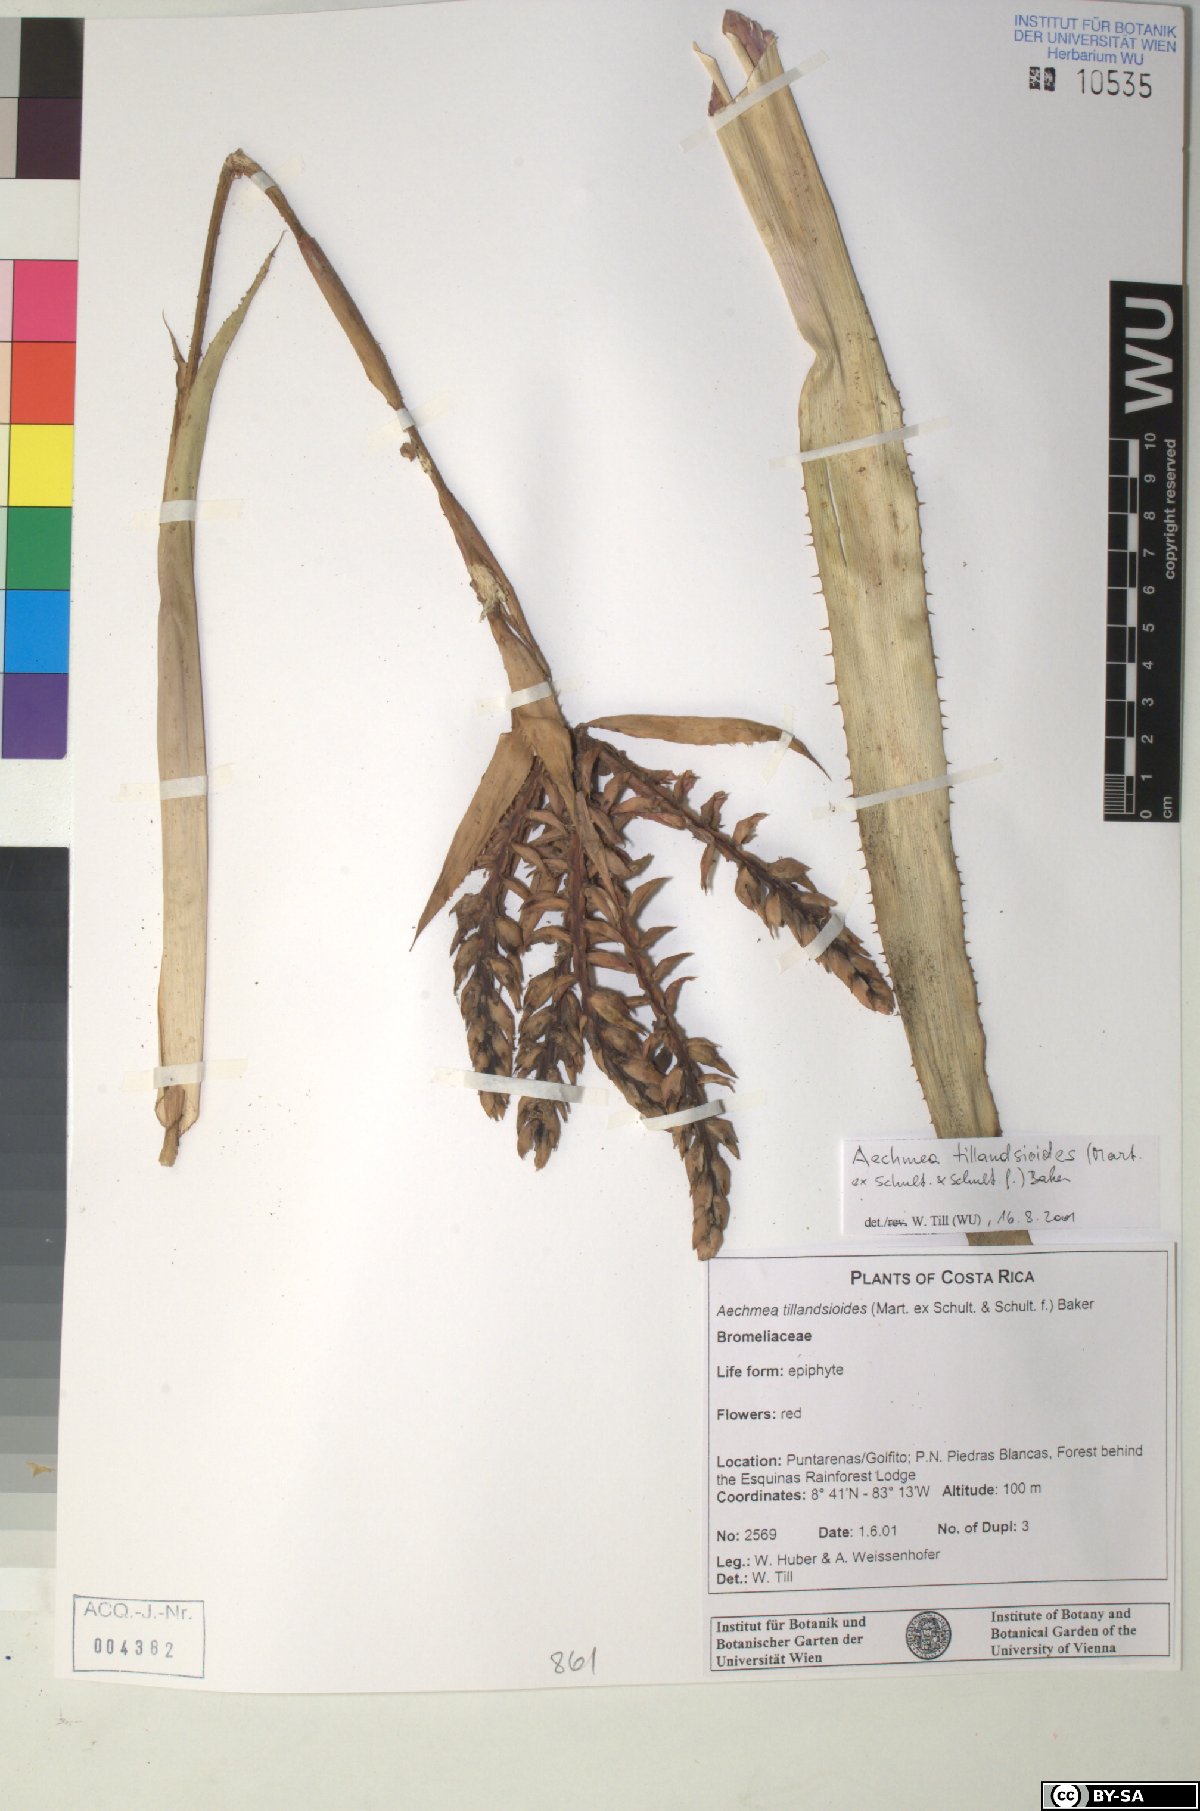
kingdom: Plantae
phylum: Tracheophyta
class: Liliopsida
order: Poales
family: Bromeliaceae
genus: Aechmea
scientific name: Aechmea tillandsioides
